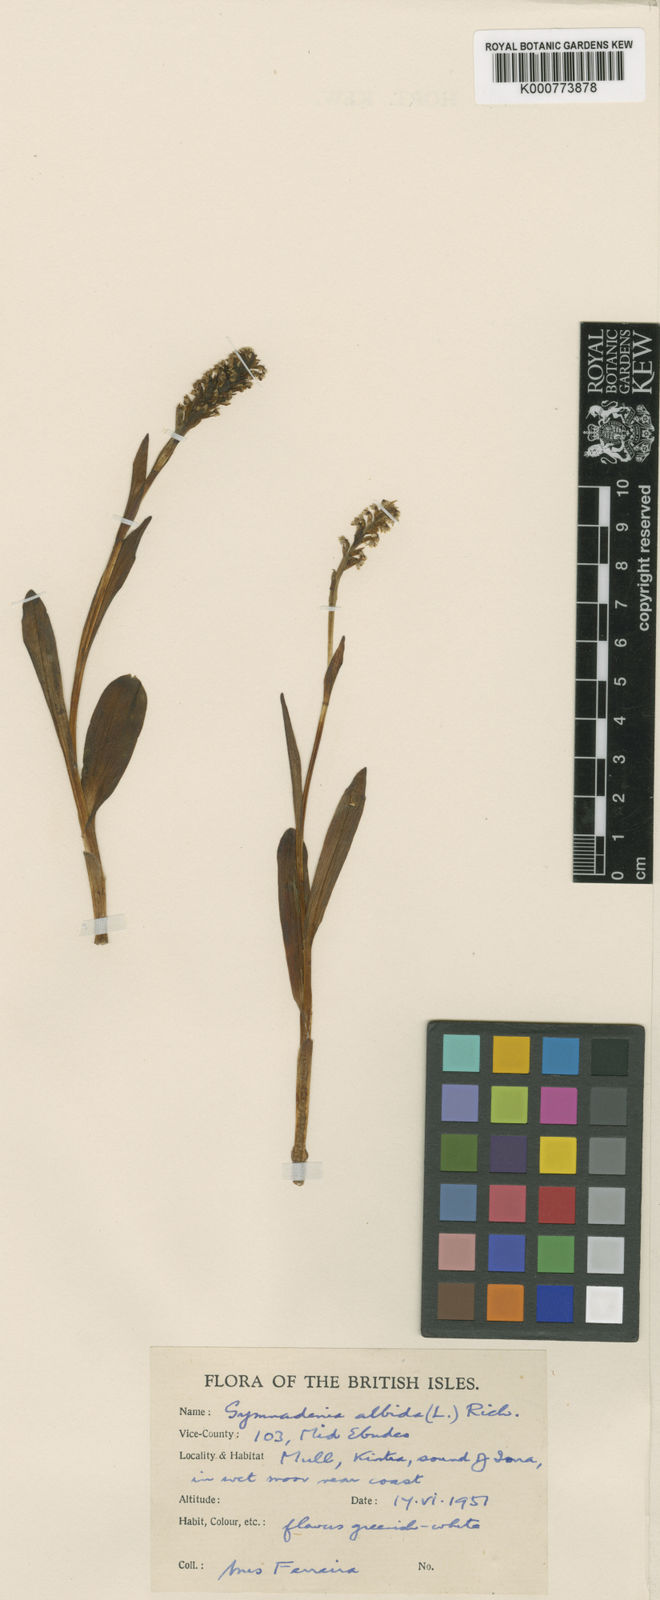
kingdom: Plantae
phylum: Tracheophyta
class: Liliopsida
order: Asparagales
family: Orchidaceae
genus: Pseudorchis
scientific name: Pseudorchis
